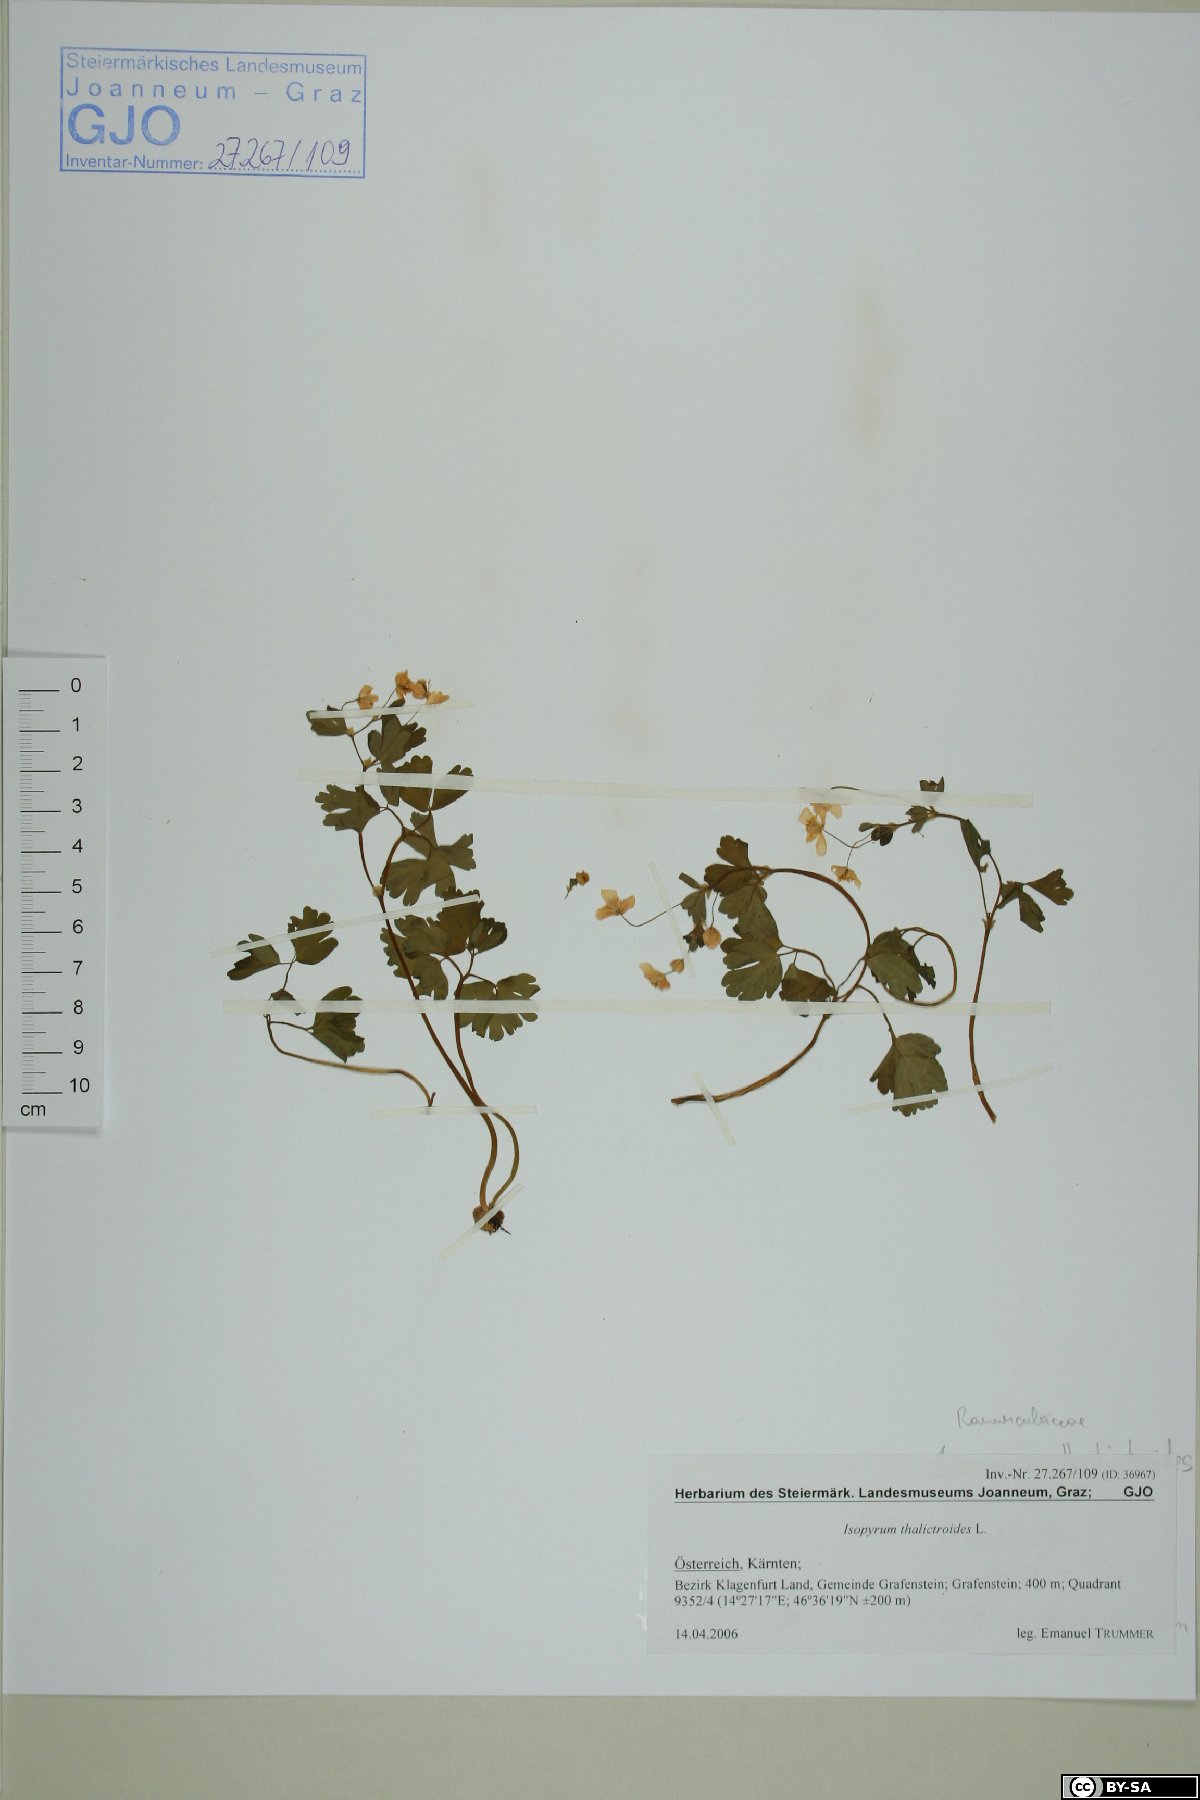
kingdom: Plantae
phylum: Tracheophyta
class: Magnoliopsida
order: Ranunculales
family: Ranunculaceae
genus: Isopyrum
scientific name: Isopyrum thalictroides
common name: Isopyrum
